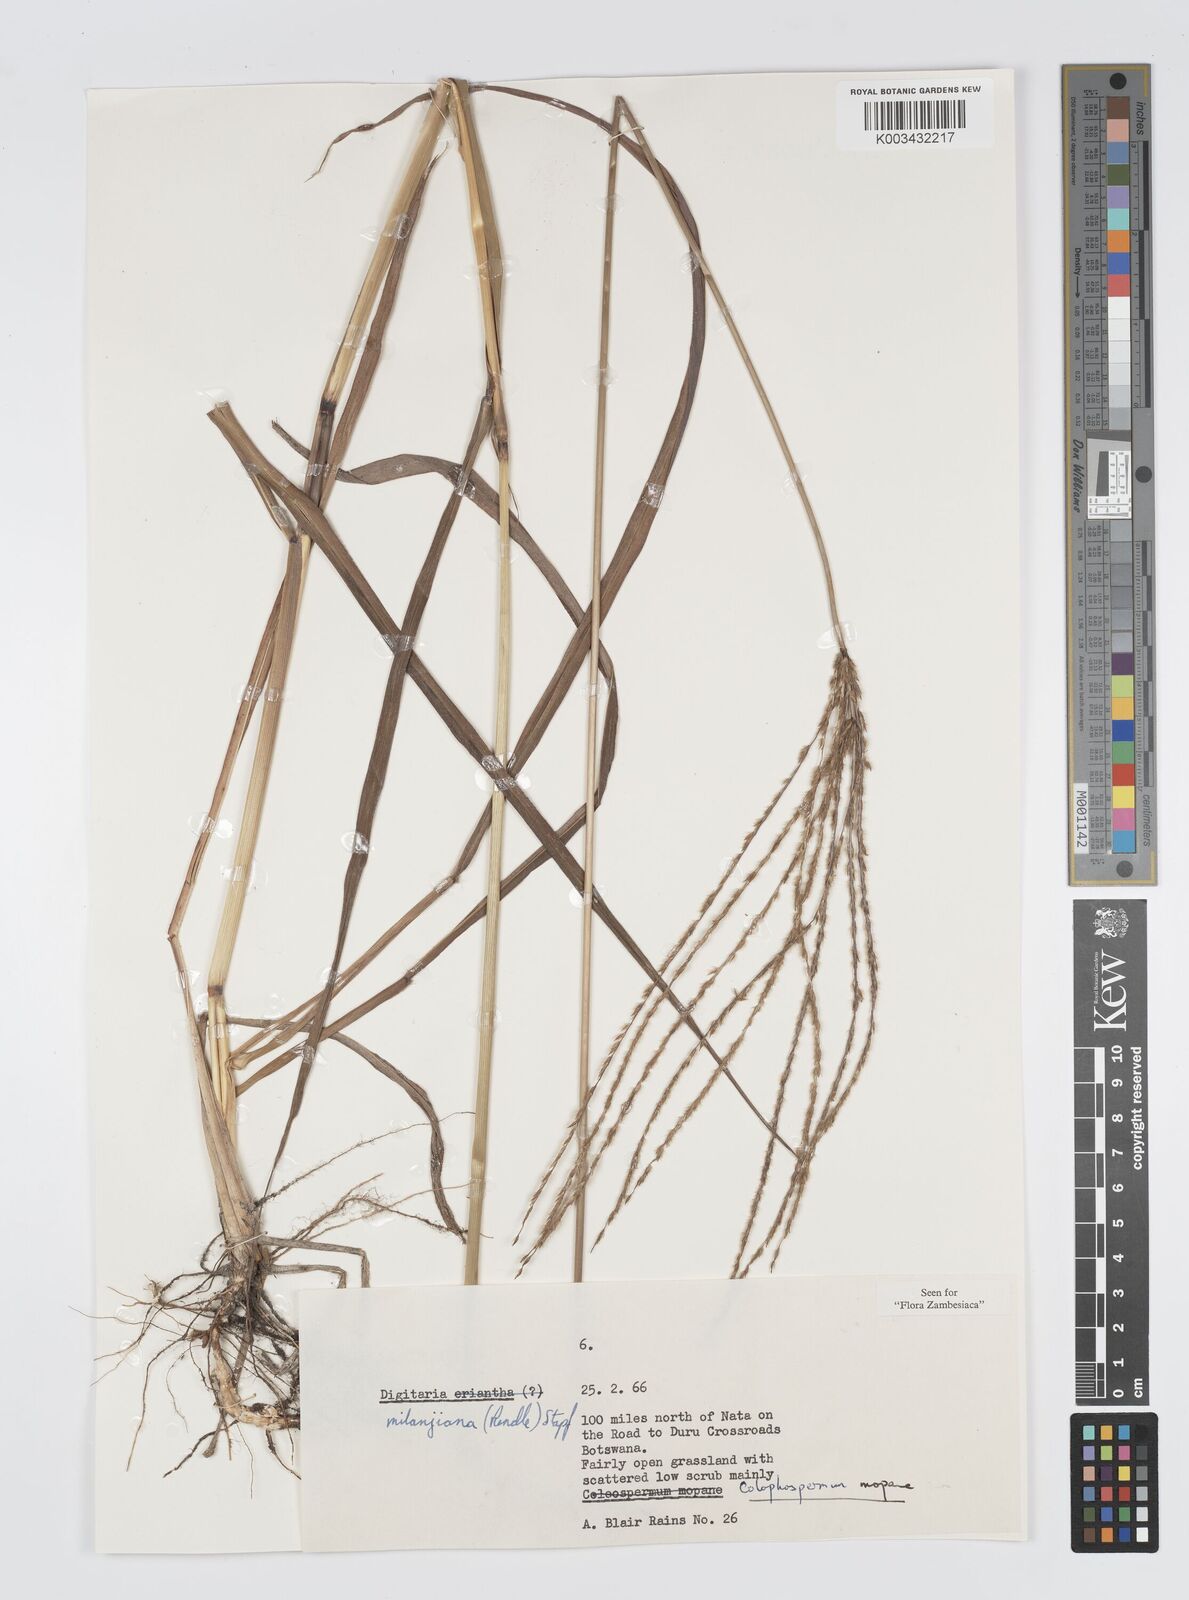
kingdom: Plantae
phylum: Tracheophyta
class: Liliopsida
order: Poales
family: Poaceae
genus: Digitaria
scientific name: Digitaria milanjiana
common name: Madagascar crabgrass
